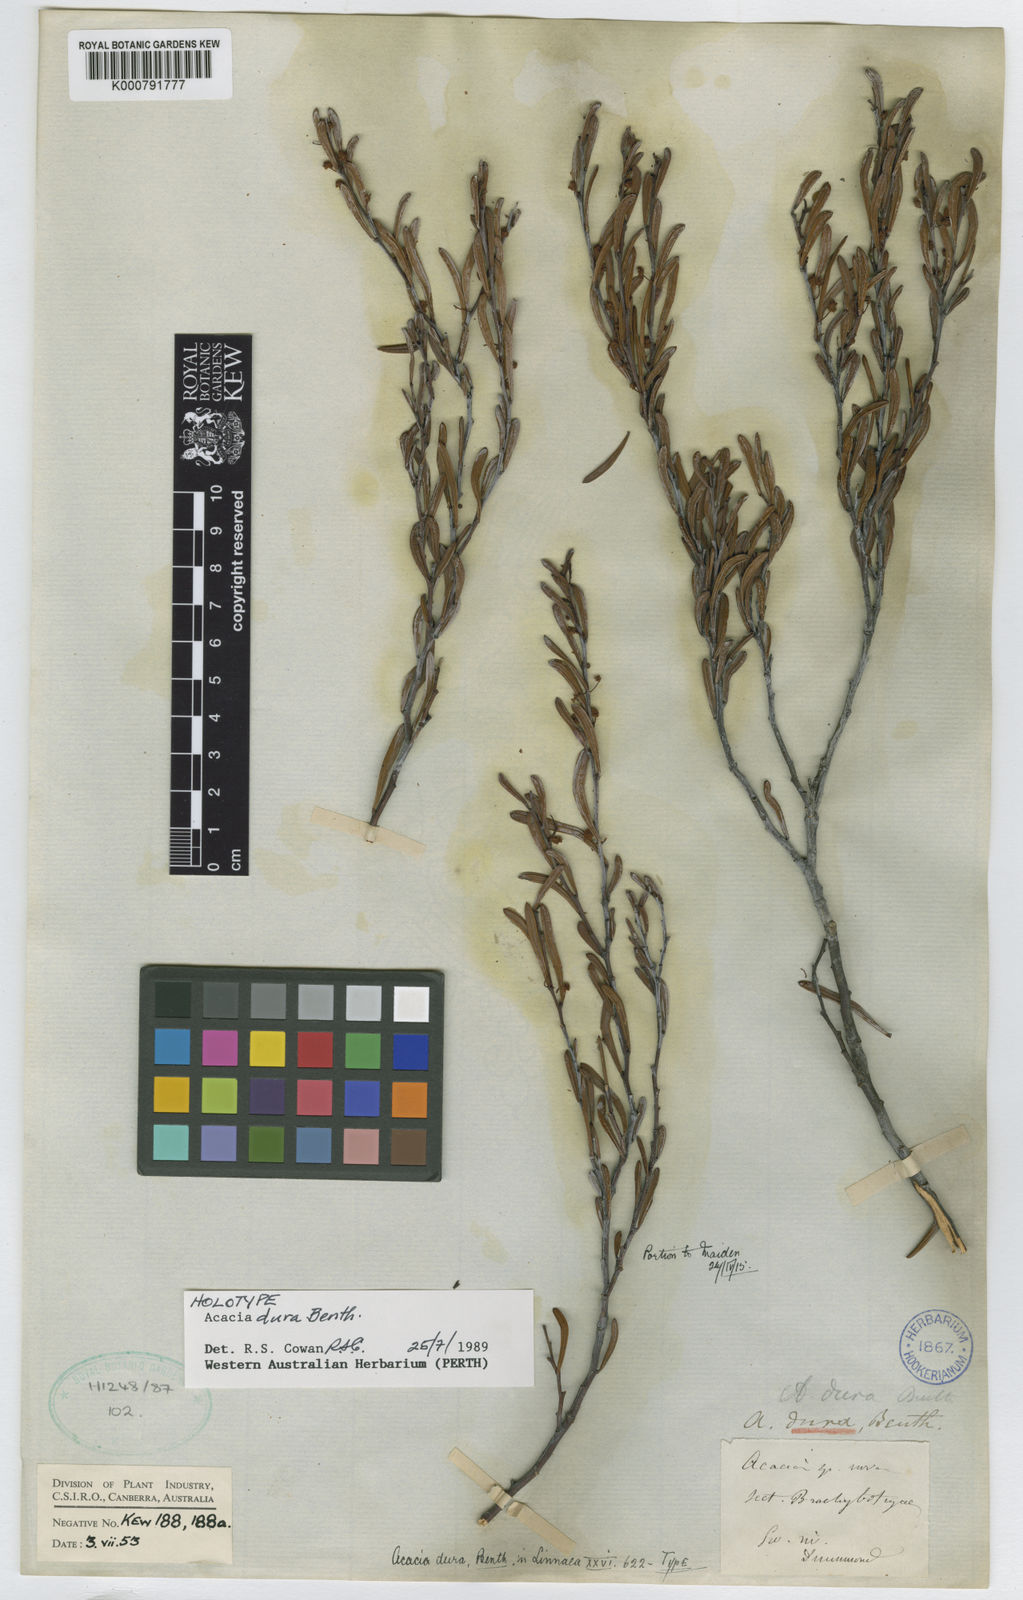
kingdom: Plantae
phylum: Tracheophyta
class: Magnoliopsida
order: Fabales
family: Fabaceae
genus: Acacia
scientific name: Acacia dura
